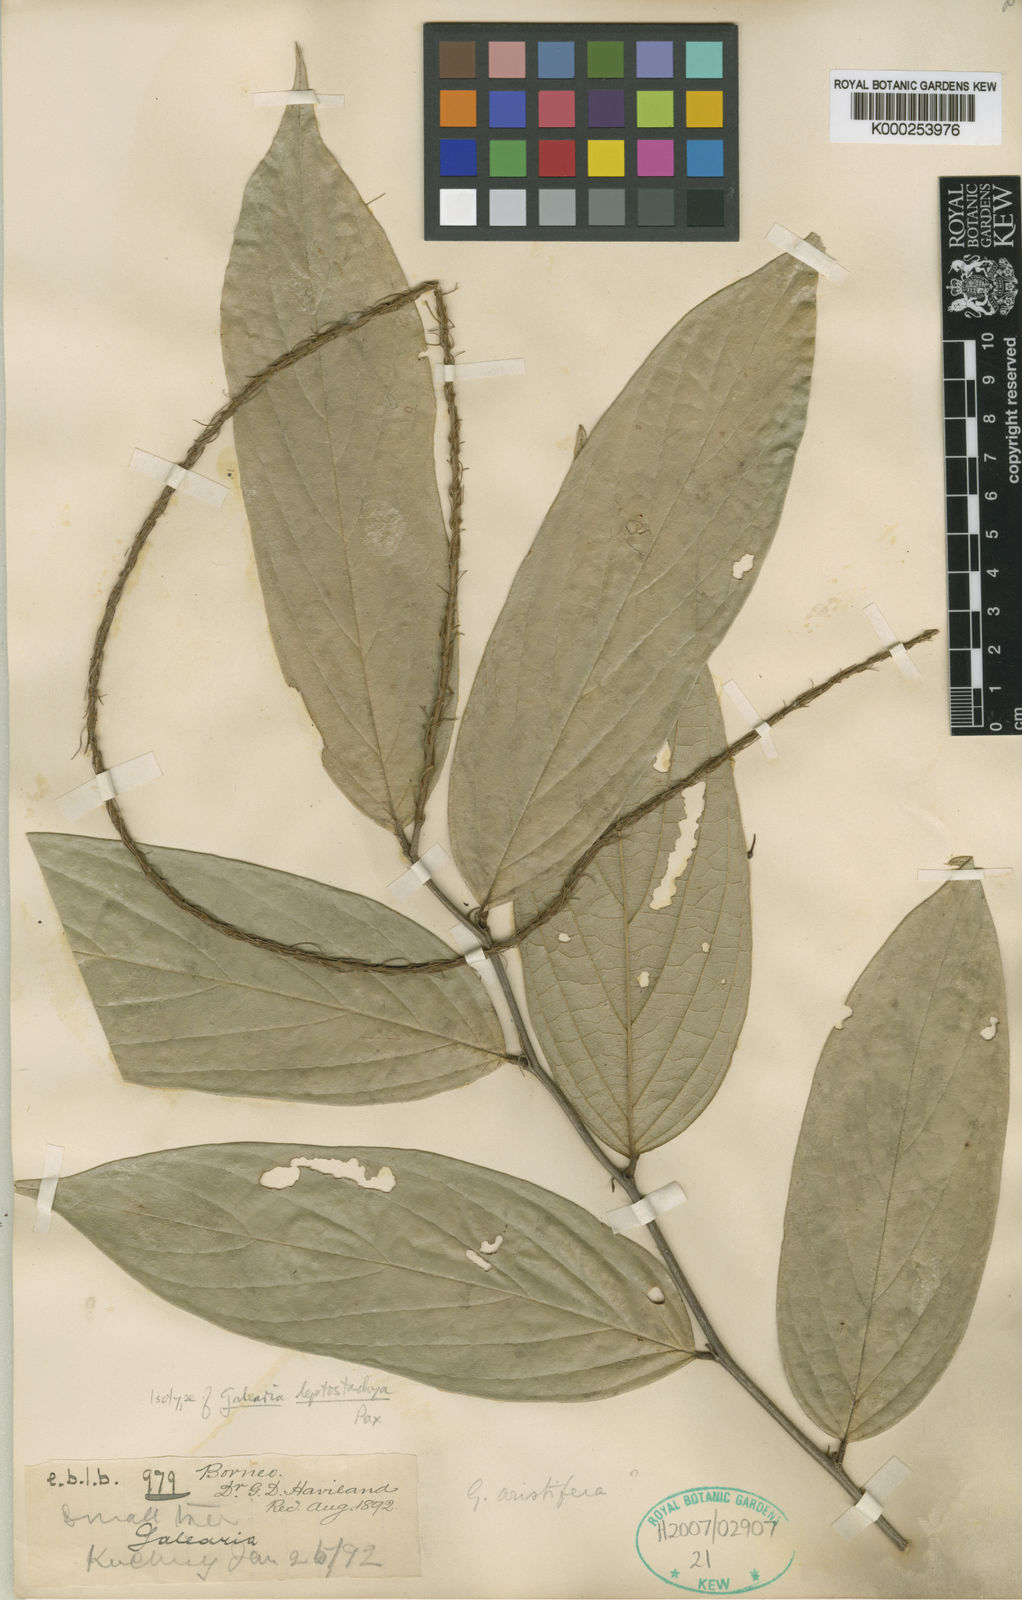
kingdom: Plantae
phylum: Tracheophyta
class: Magnoliopsida
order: Malpighiales
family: Pandaceae
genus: Galearia
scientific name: Galearia aristifera
